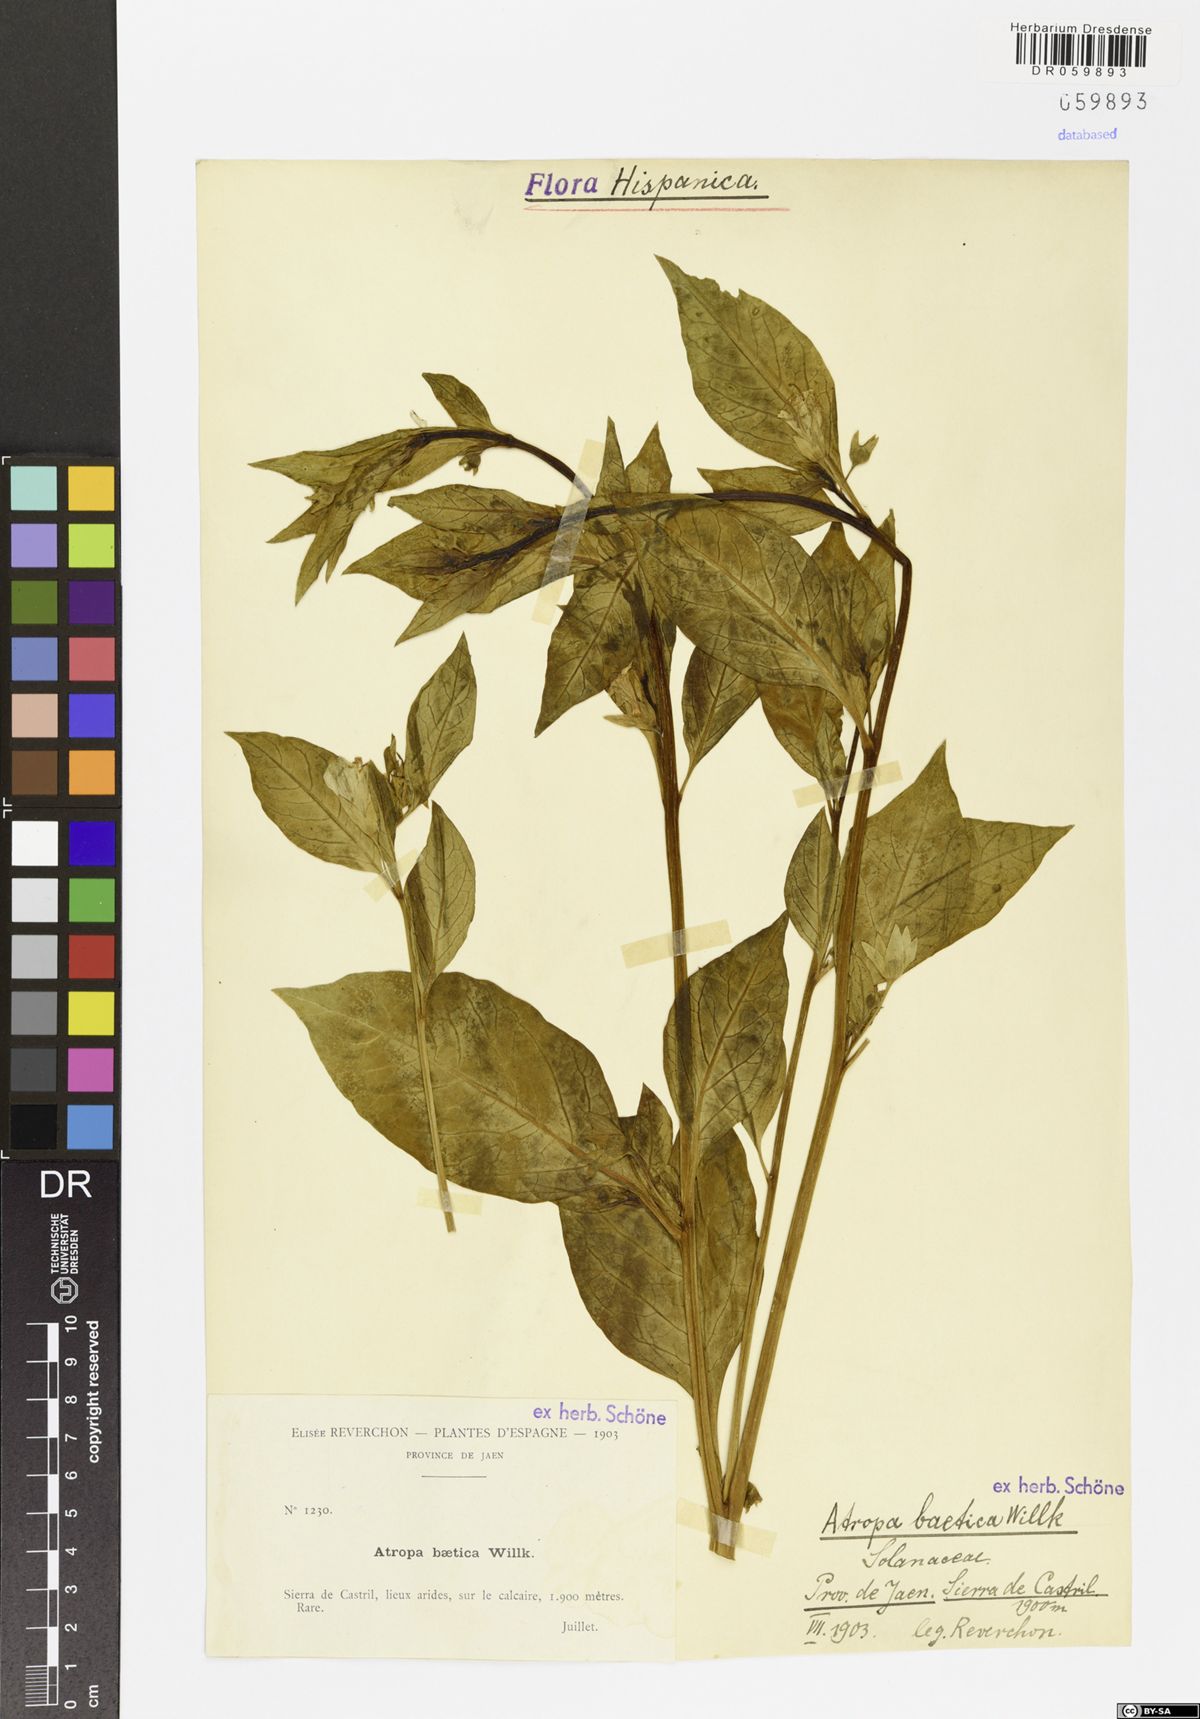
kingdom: Plantae
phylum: Tracheophyta
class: Magnoliopsida
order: Solanales
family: Solanaceae
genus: Atropa
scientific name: Atropa baetica
